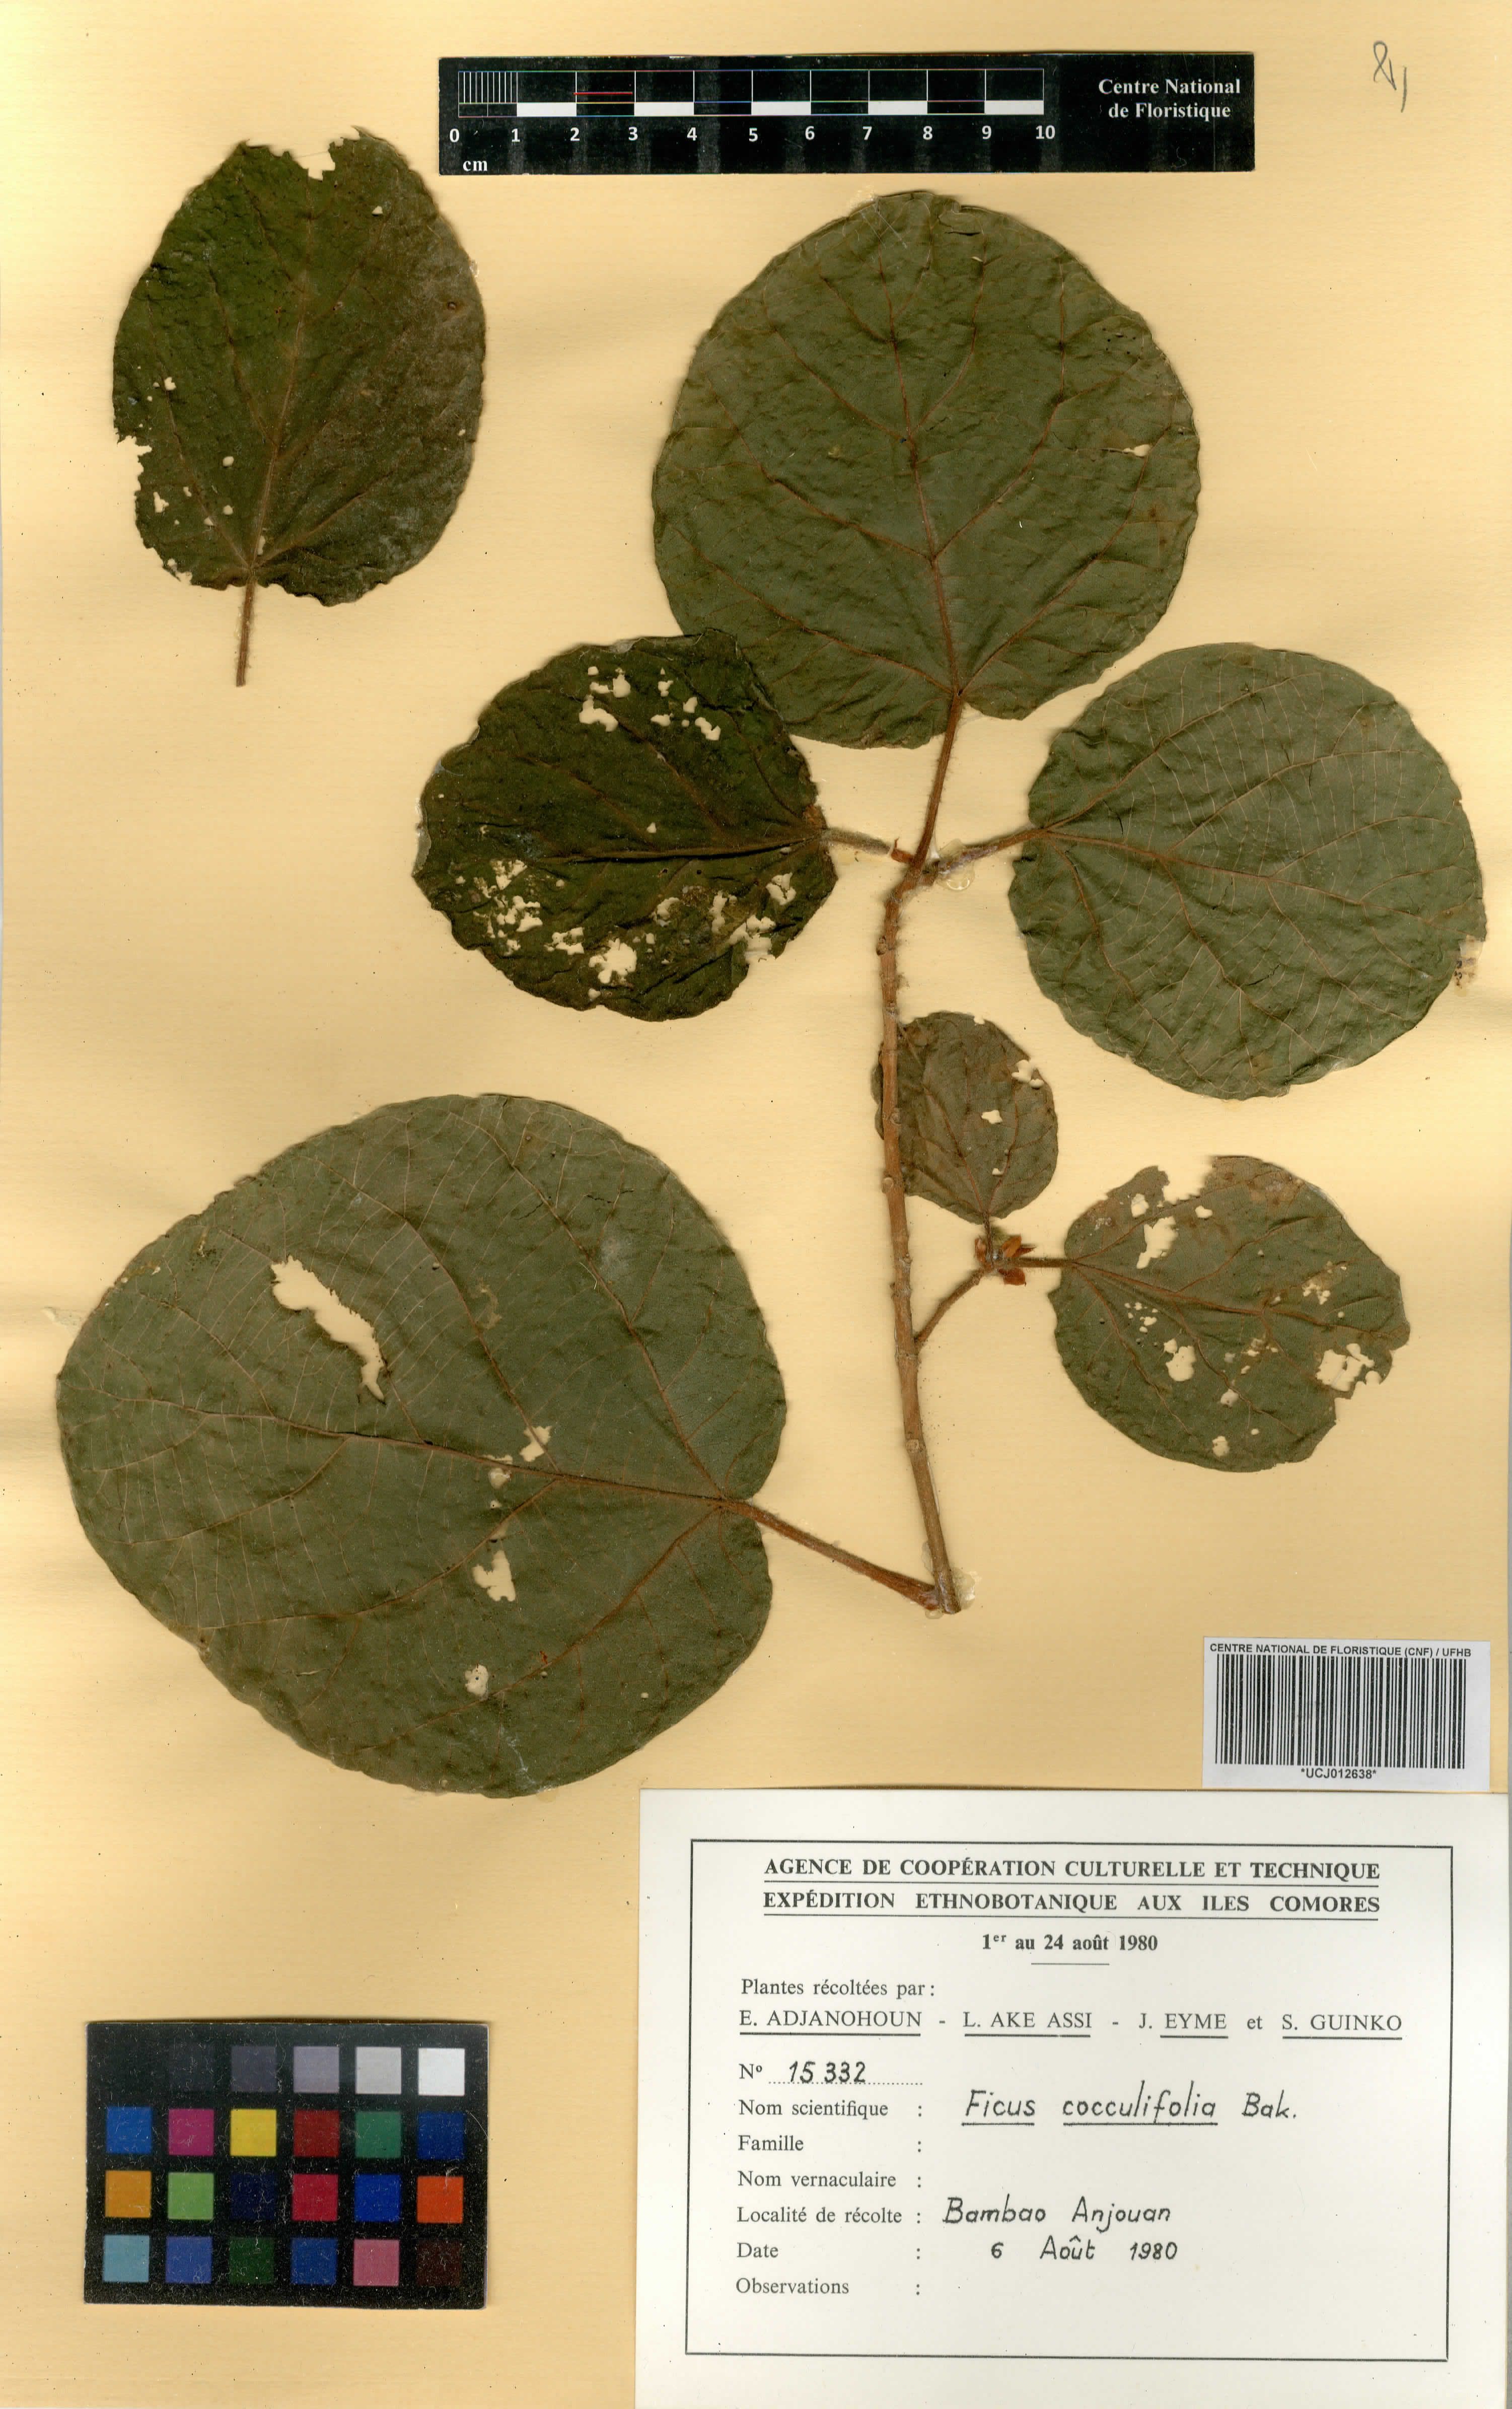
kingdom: Plantae
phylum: Tracheophyta
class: Magnoliopsida
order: Rosales
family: Moraceae
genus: Ficus
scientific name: Ficus sycomorus
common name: Sycomore
